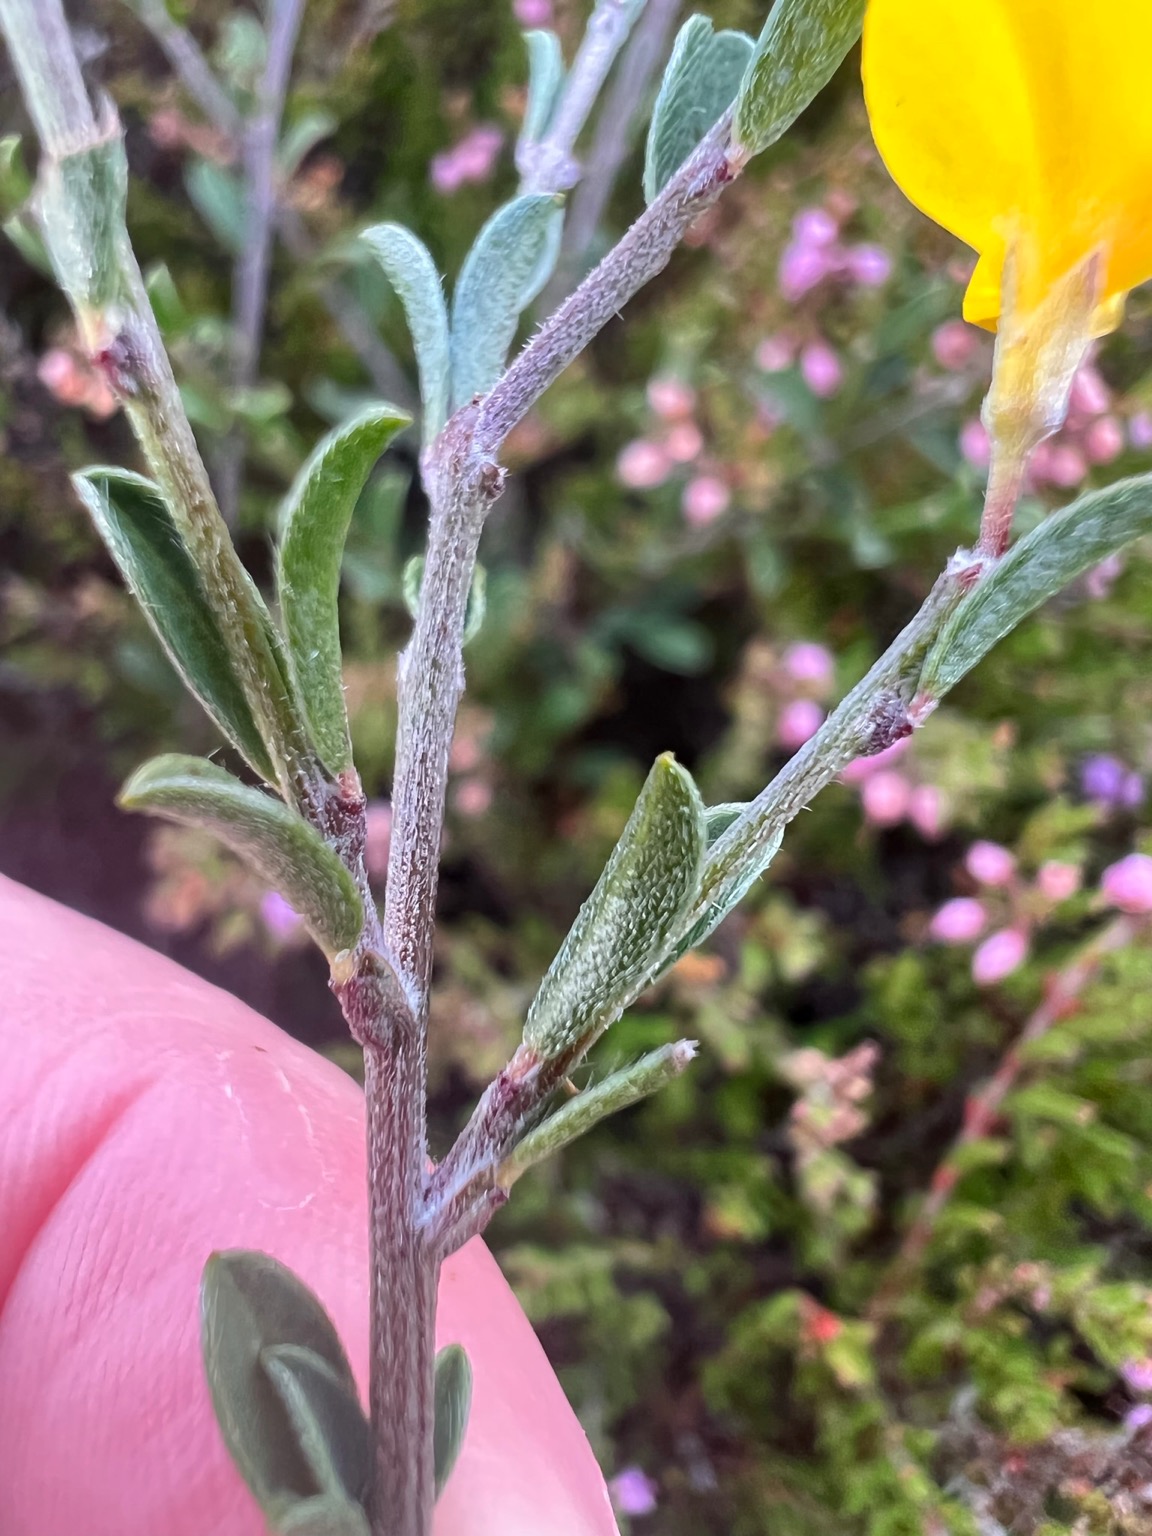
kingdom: Plantae
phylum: Tracheophyta
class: Magnoliopsida
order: Fabales
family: Fabaceae
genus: Genista
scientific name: Genista pilosa
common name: Håret visse
